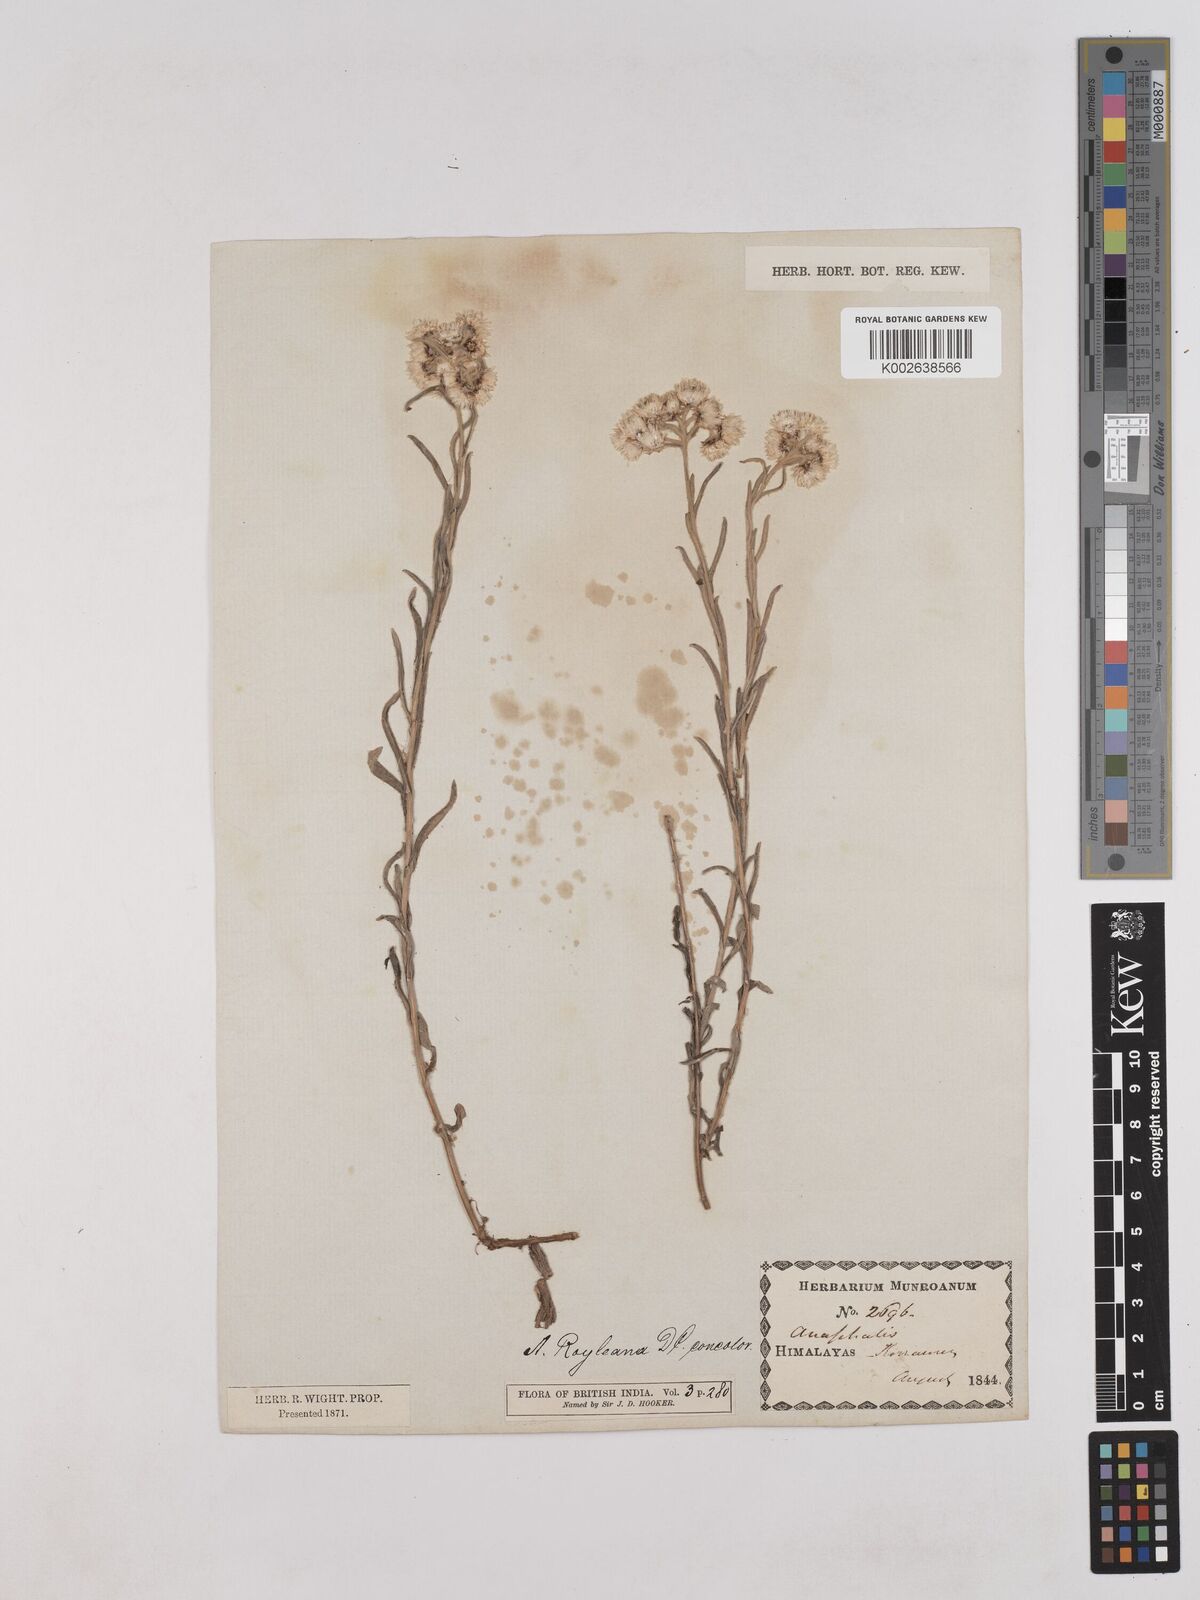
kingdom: Plantae
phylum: Tracheophyta
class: Magnoliopsida
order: Asterales
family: Asteraceae
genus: Anaphalis
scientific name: Anaphalis royleana
